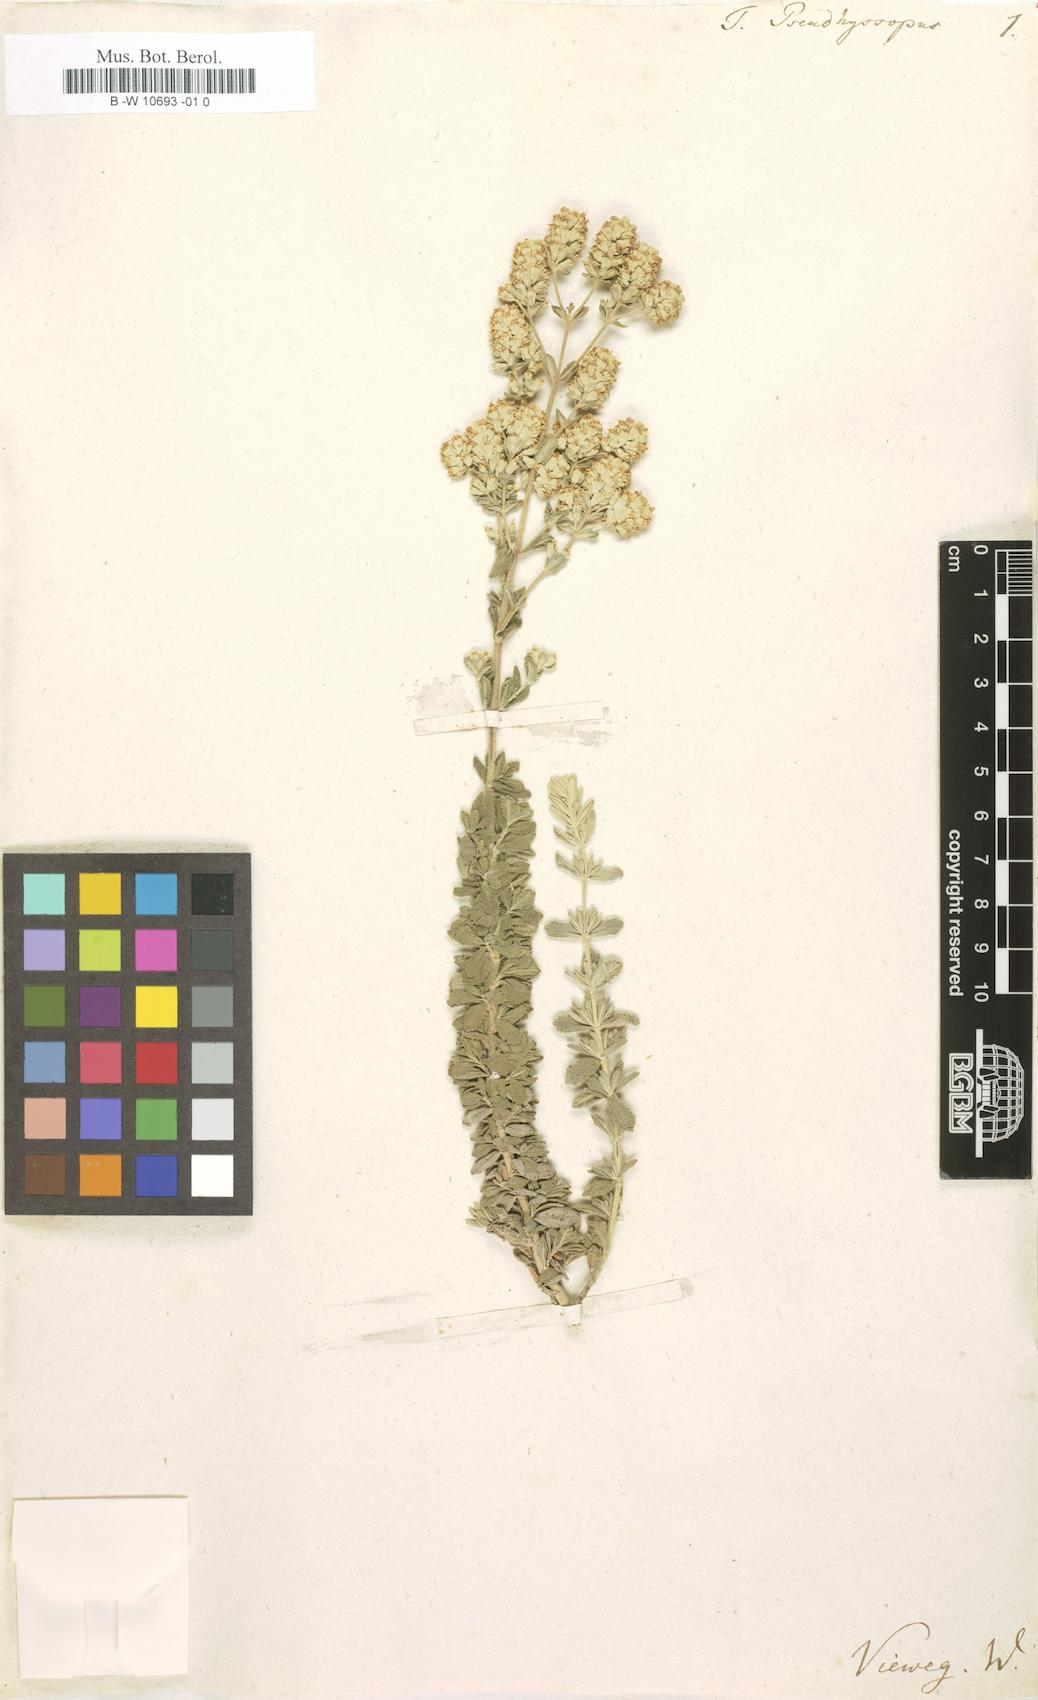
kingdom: Plantae
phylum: Tracheophyta
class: Magnoliopsida
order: Lamiales
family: Lamiaceae
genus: Teucrium
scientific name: Teucrium polium
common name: Poley
